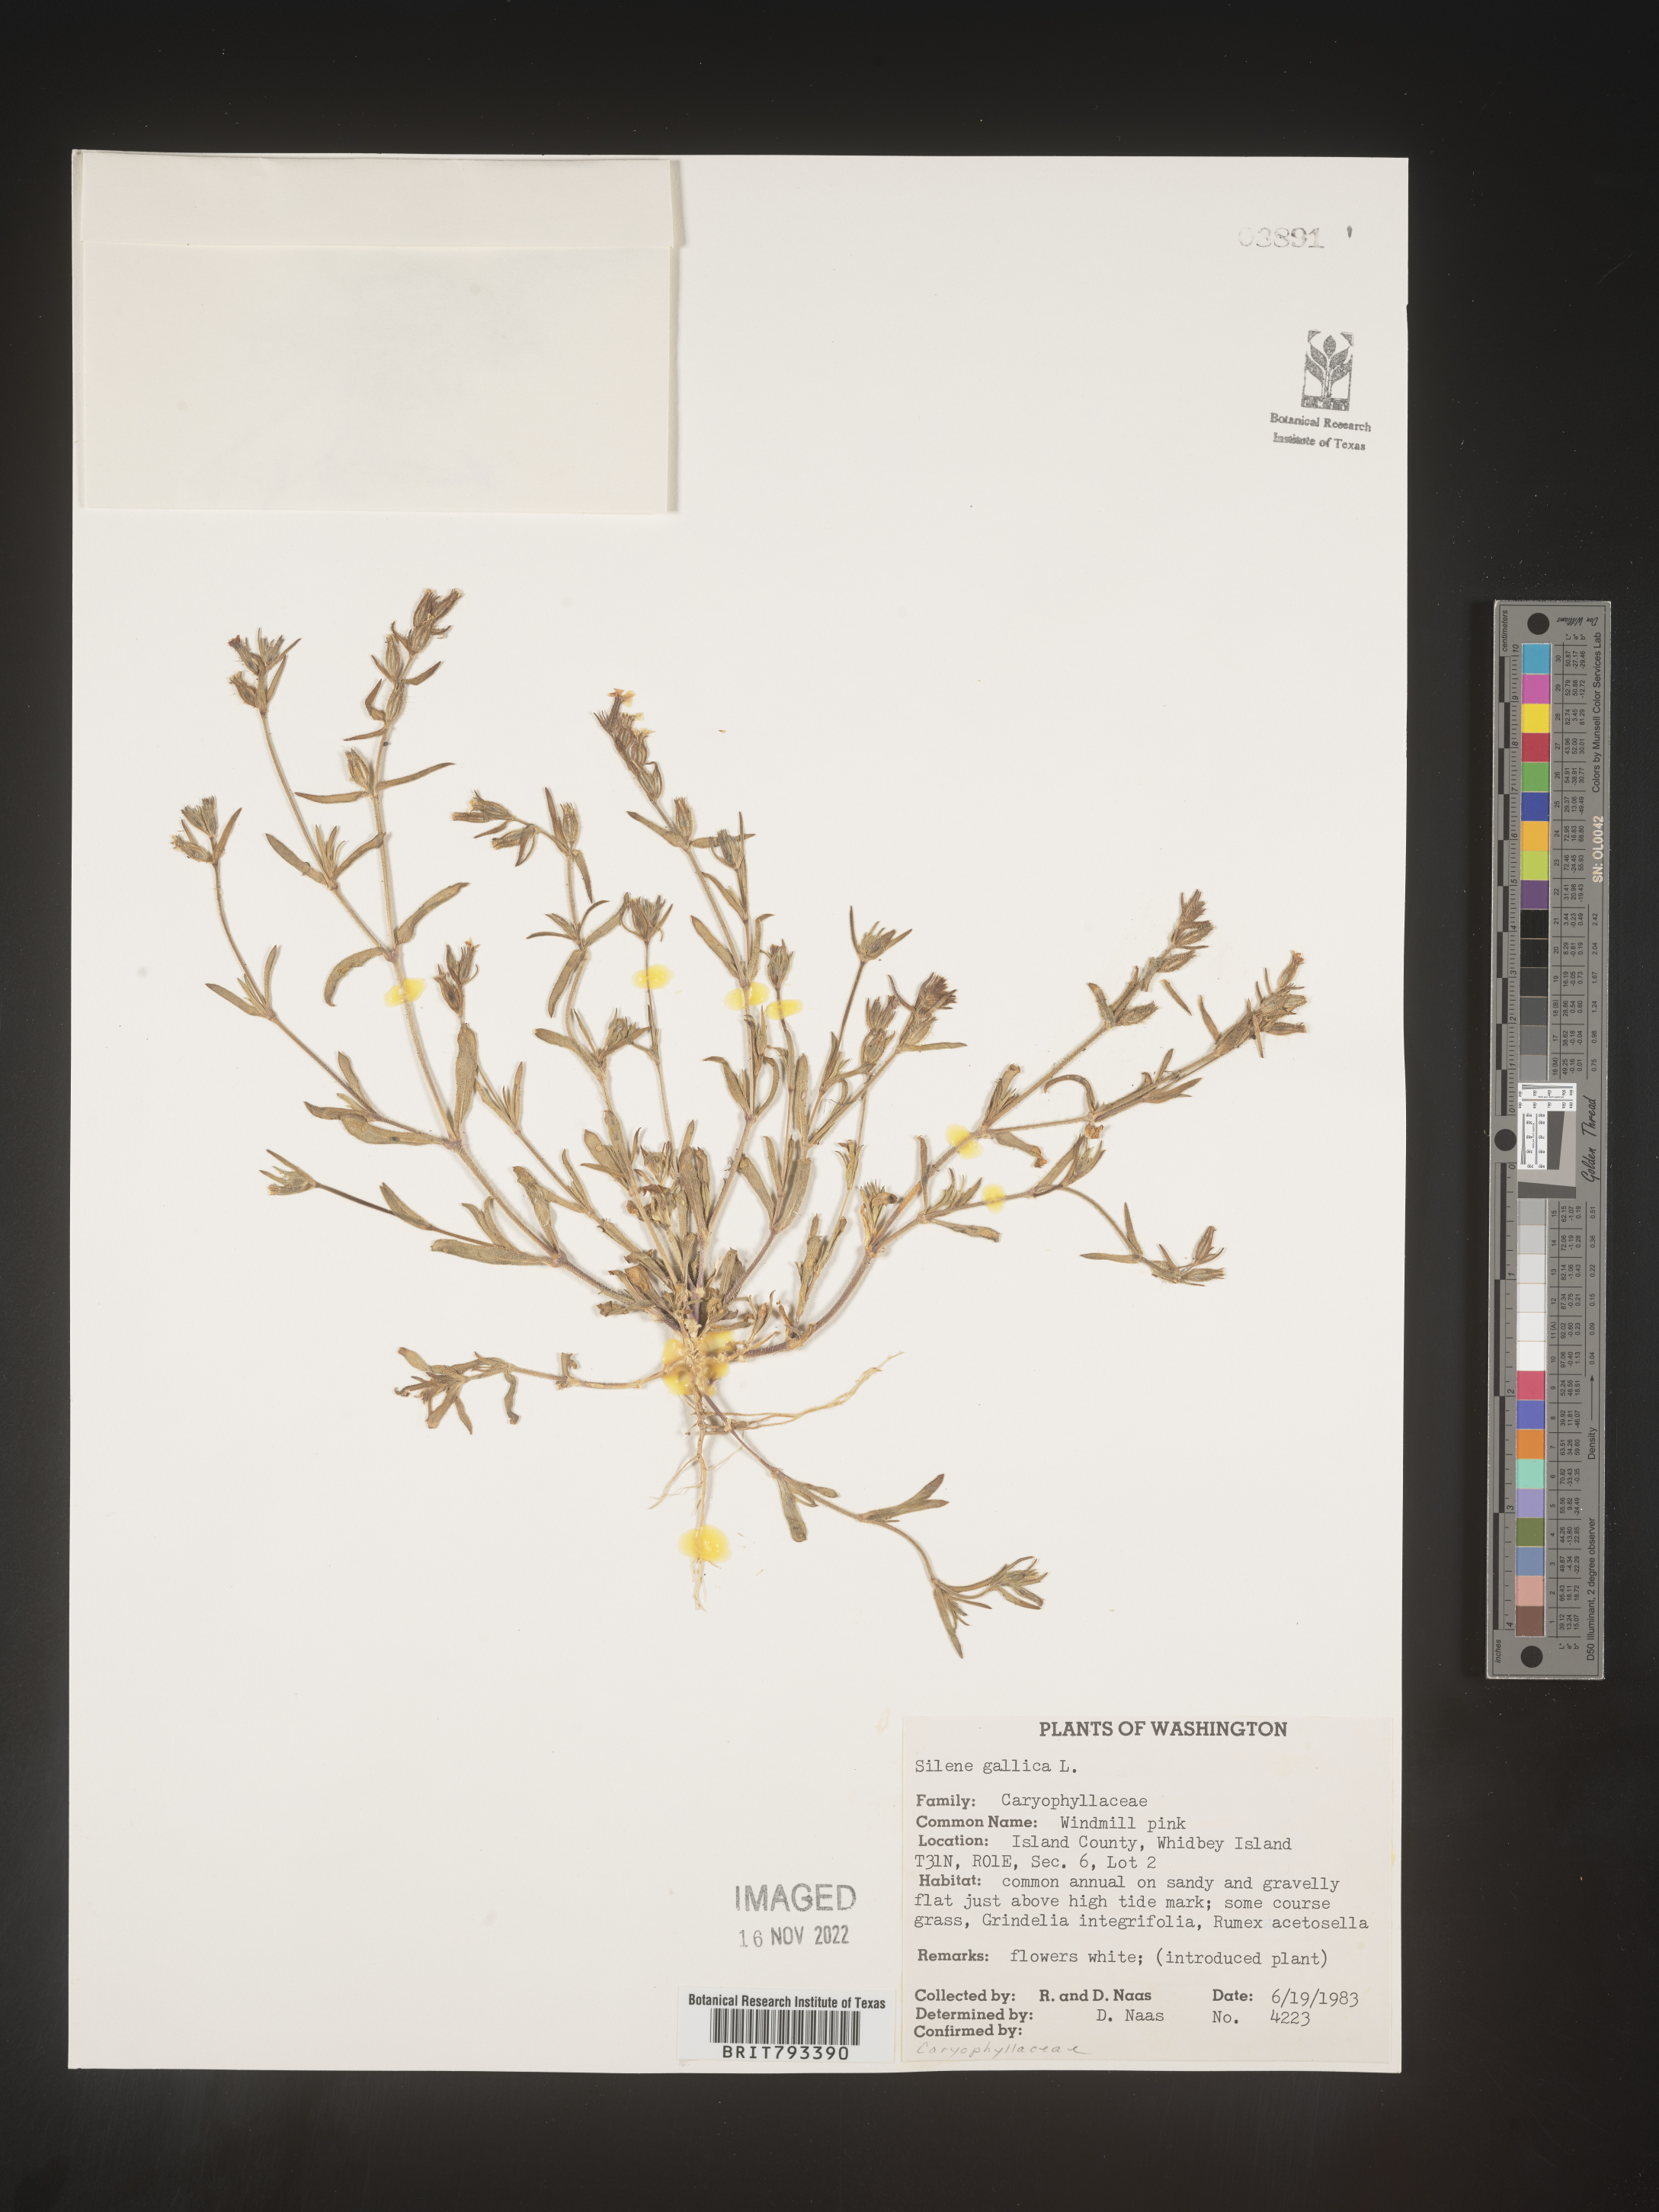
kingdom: Plantae
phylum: Tracheophyta
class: Magnoliopsida
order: Caryophyllales
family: Caryophyllaceae
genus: Silene
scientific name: Silene gallica
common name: Small-flowered catchfly
